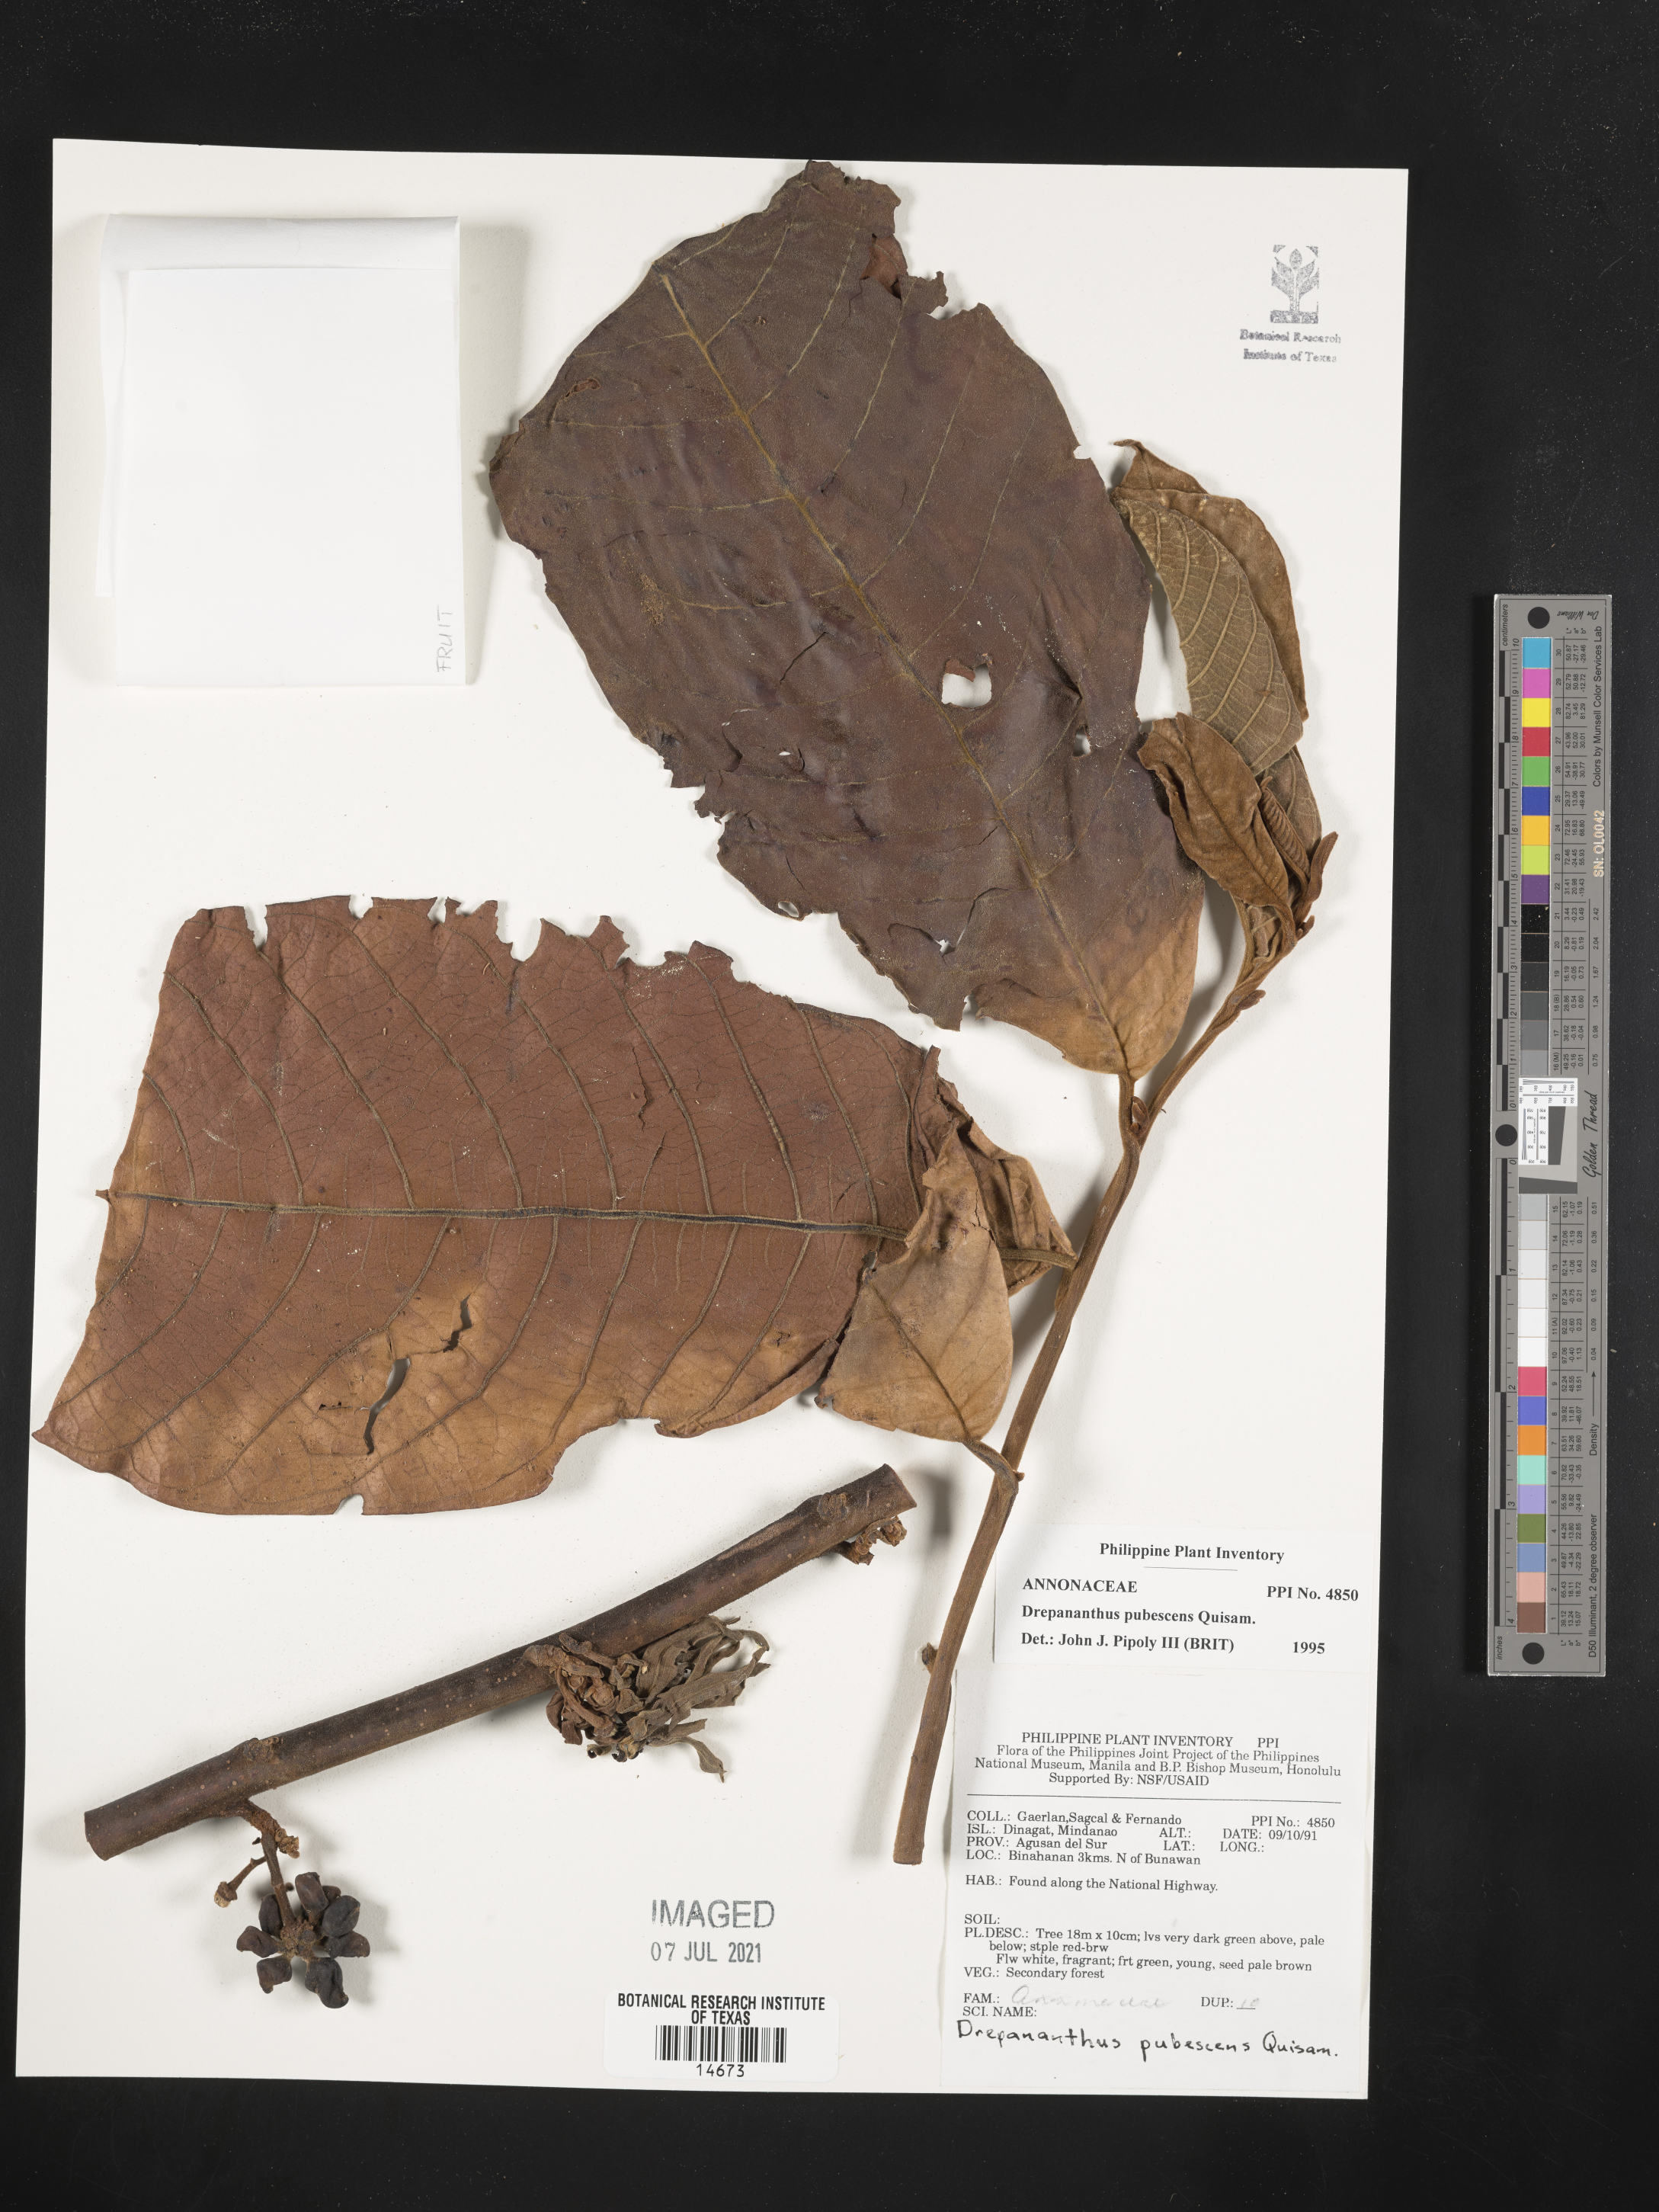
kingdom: Plantae
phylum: Tracheophyta
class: Magnoliopsida
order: Magnoliales
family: Annonaceae
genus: Drepananthus
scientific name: Drepananthus pubescens
